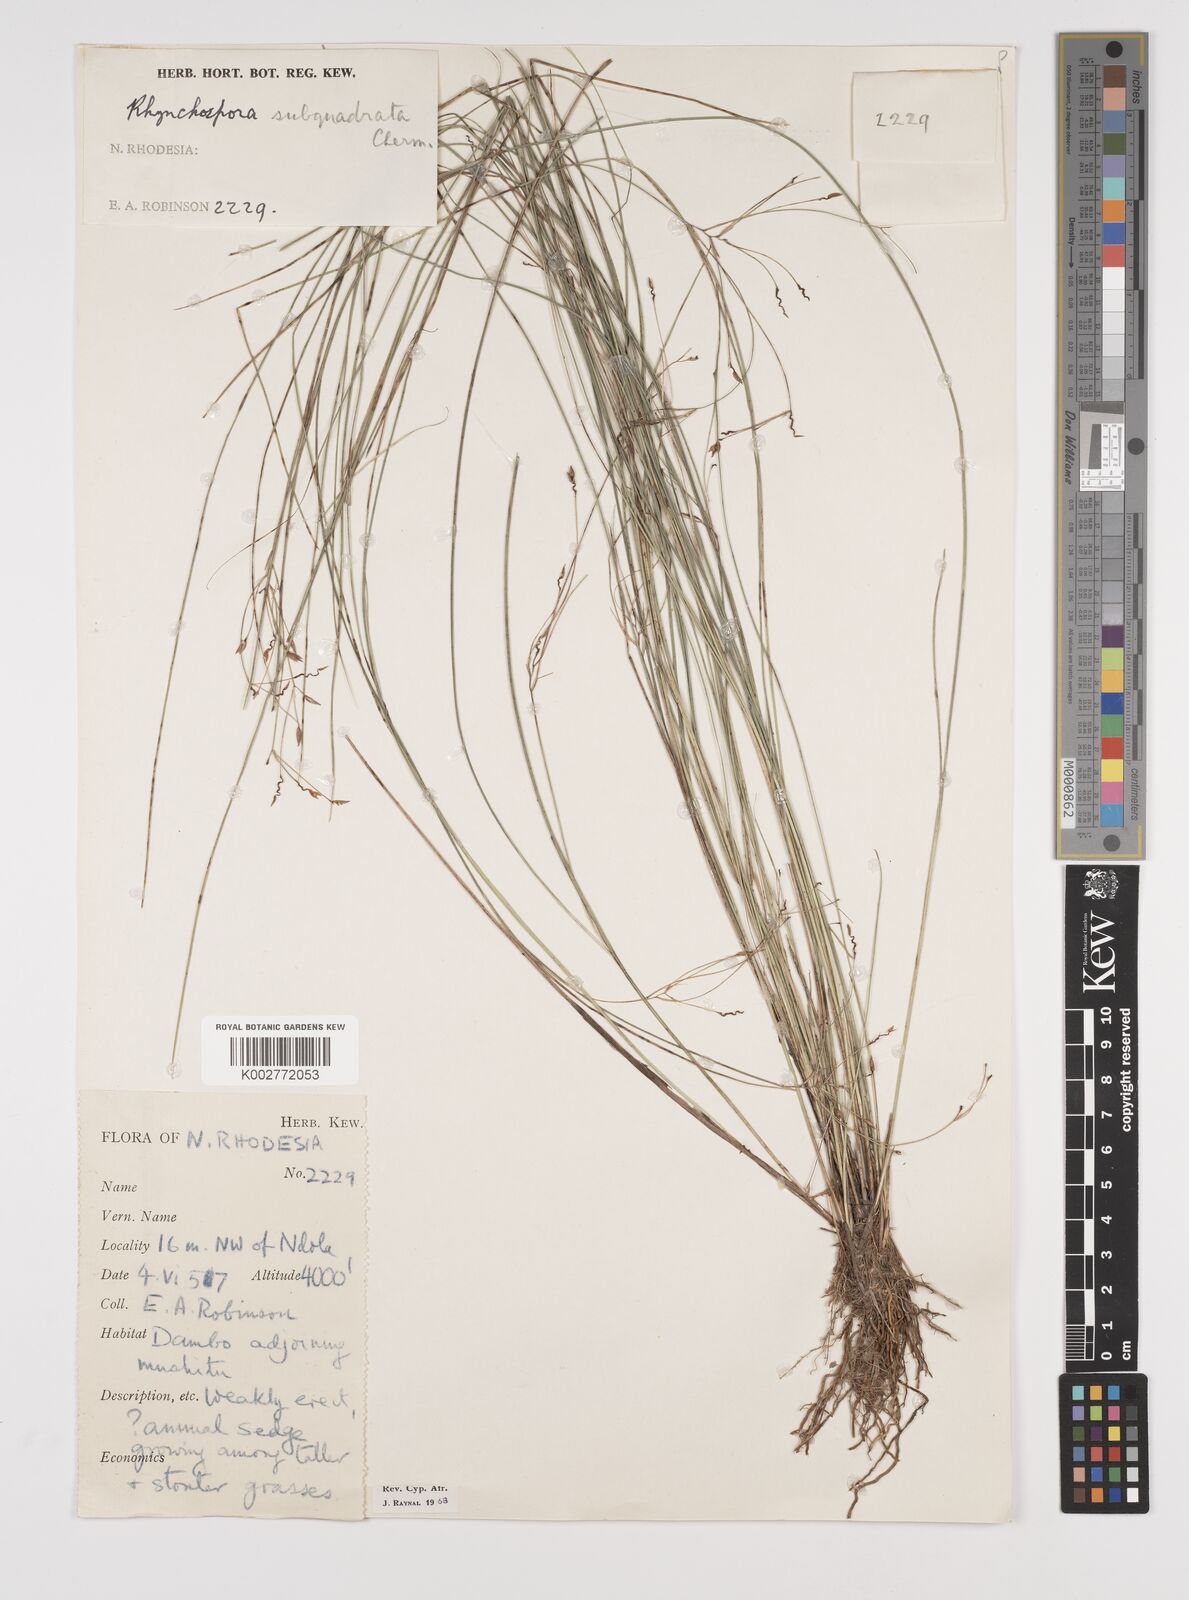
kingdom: Plantae
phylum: Tracheophyta
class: Liliopsida
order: Poales
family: Cyperaceae
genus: Rhynchospora
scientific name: Rhynchospora gracillima
